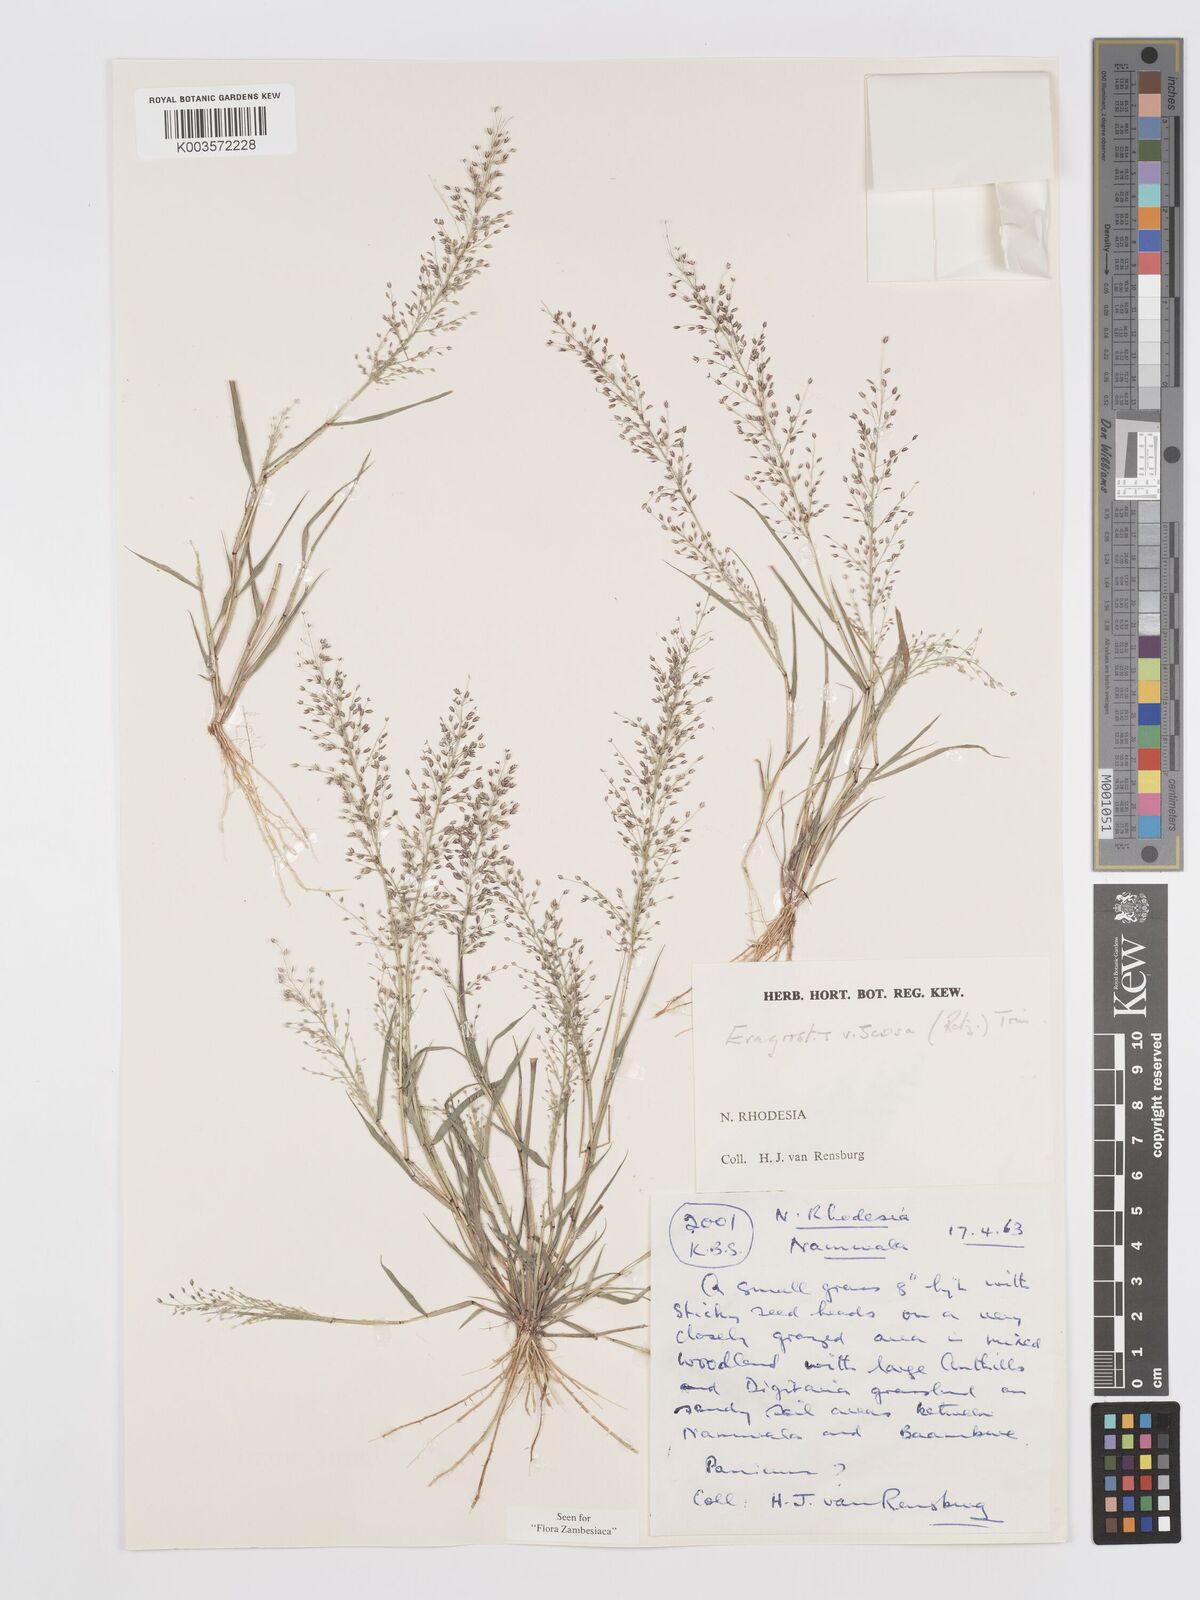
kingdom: Plantae
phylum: Tracheophyta
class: Liliopsida
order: Poales
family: Poaceae
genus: Eragrostis
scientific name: Eragrostis
